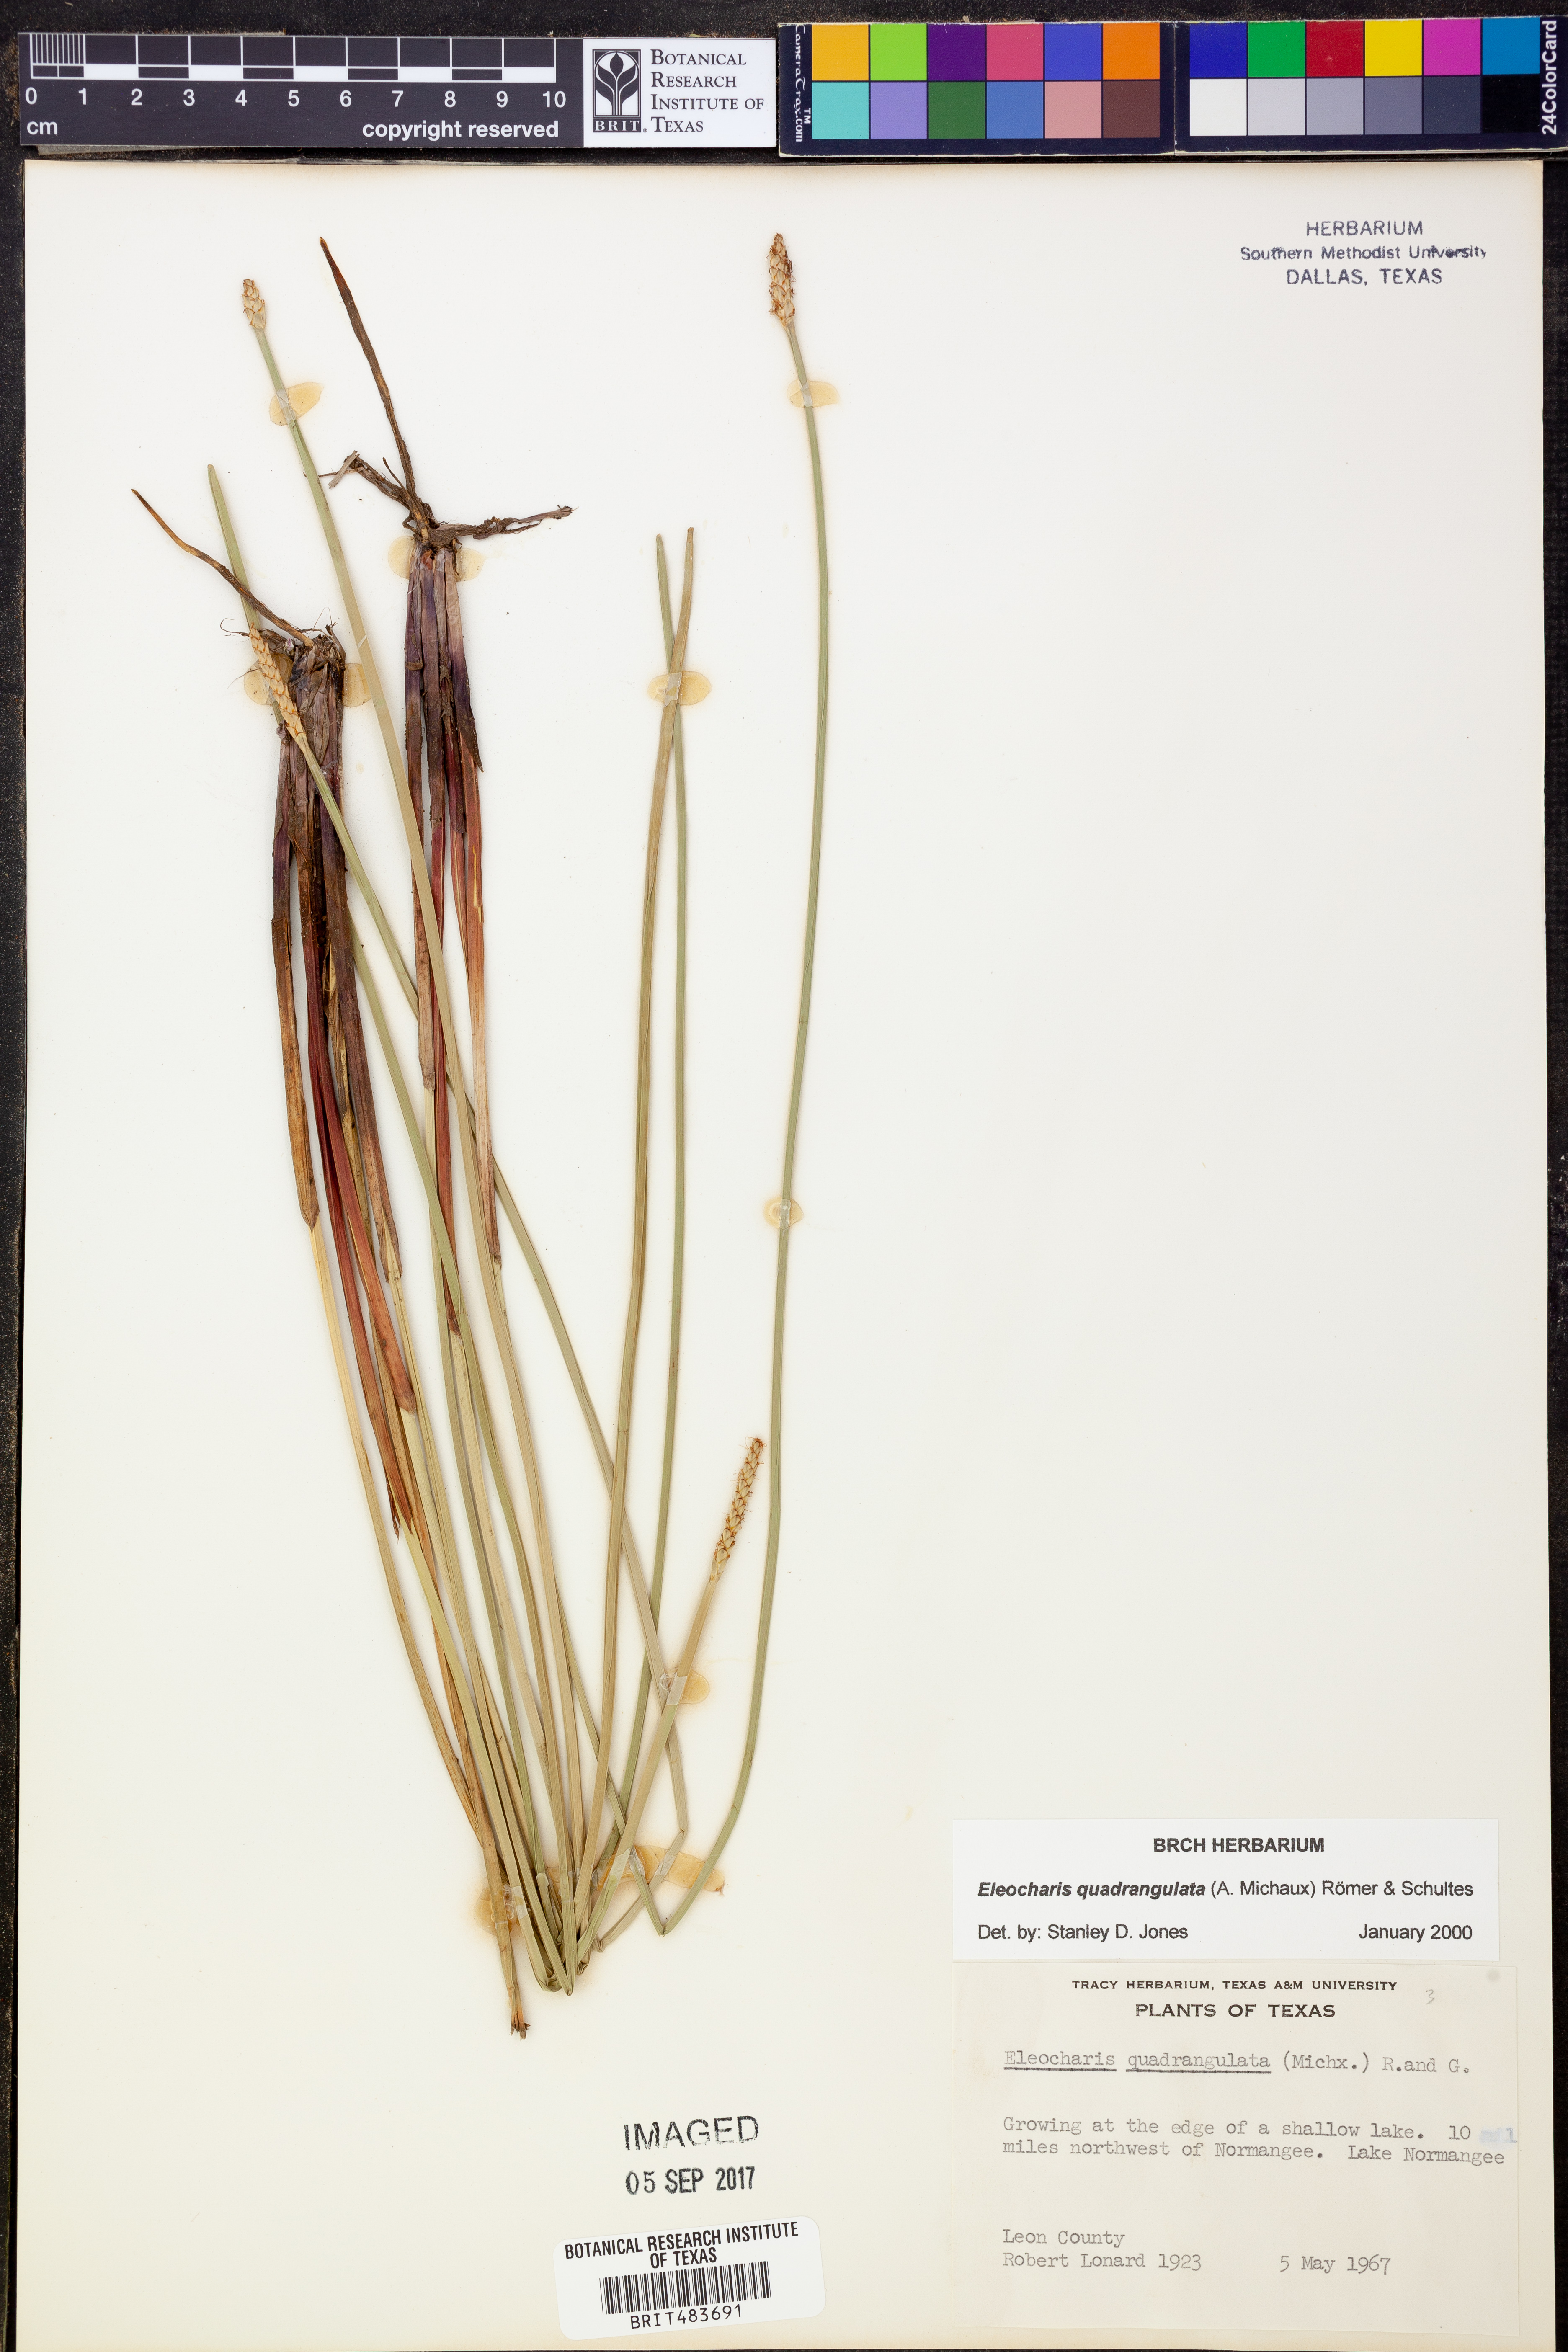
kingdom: Plantae
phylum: Tracheophyta
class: Liliopsida
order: Poales
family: Cyperaceae
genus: Eleocharis
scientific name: Eleocharis quadrangulata
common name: Square-stem spike-rush
